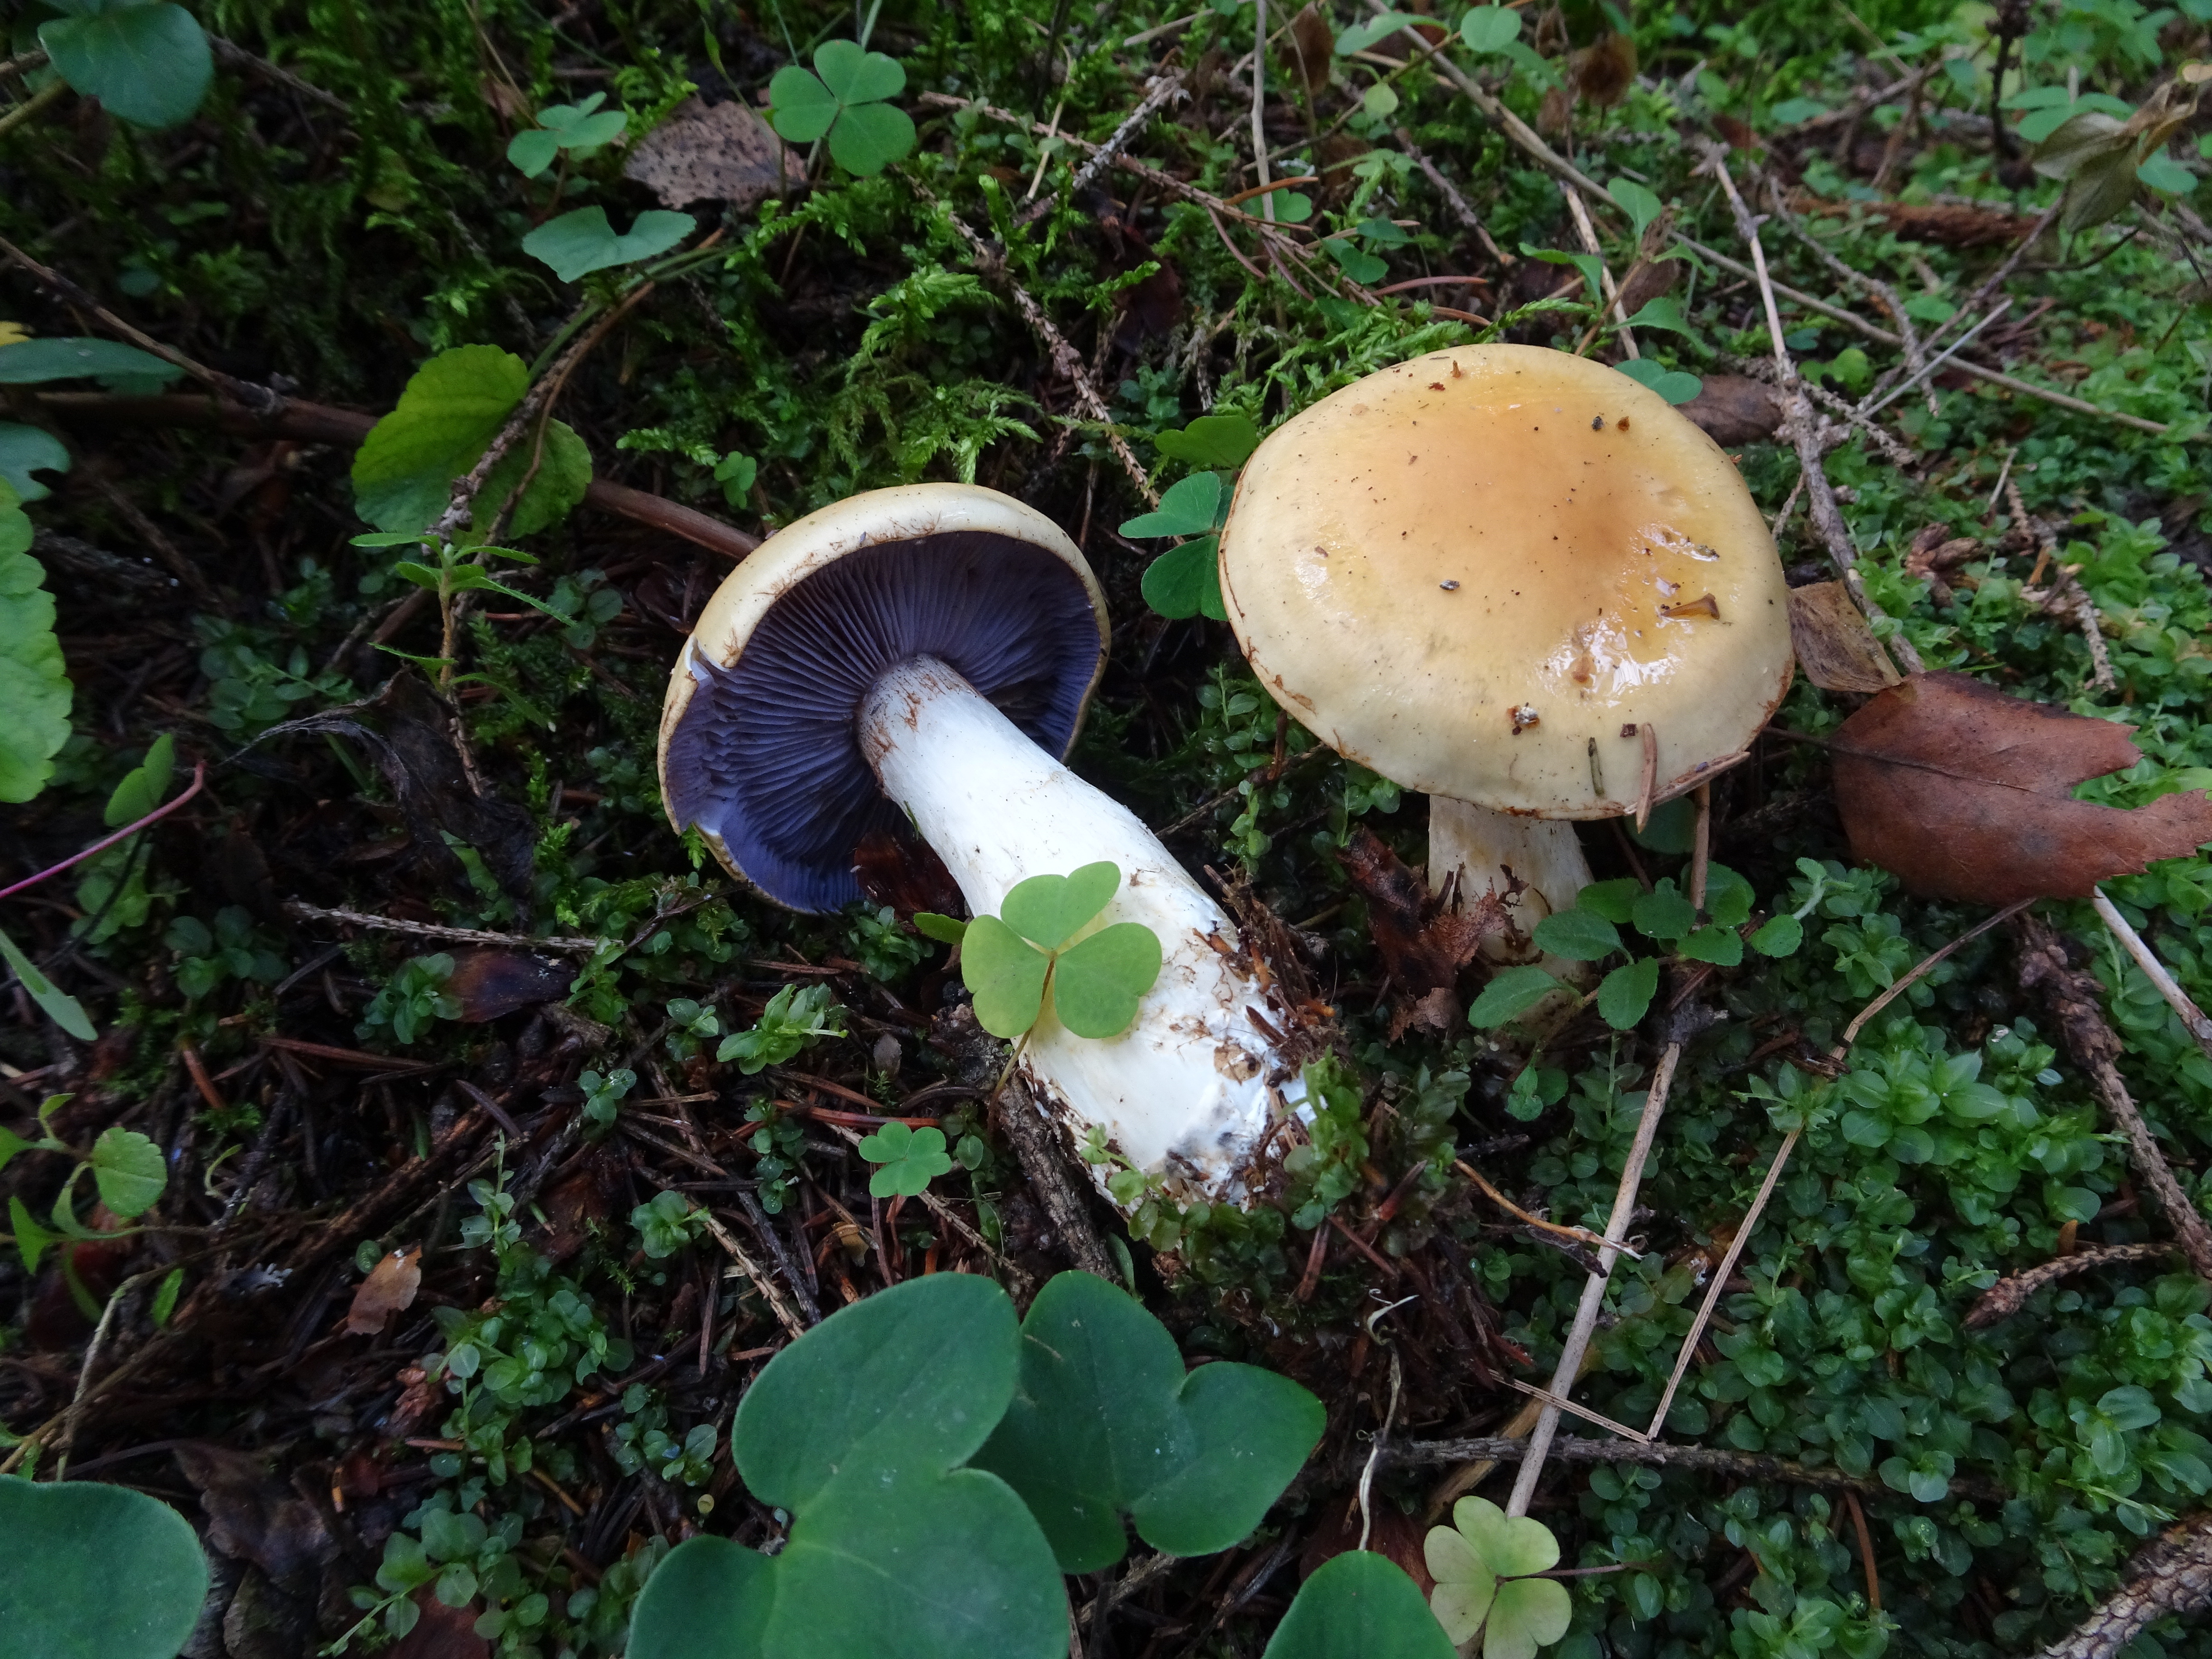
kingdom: Fungi
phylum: Basidiomycota
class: Agaricomycetes
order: Agaricales
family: Cortinariaceae
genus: Cortinarius
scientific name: Cortinarius varius
